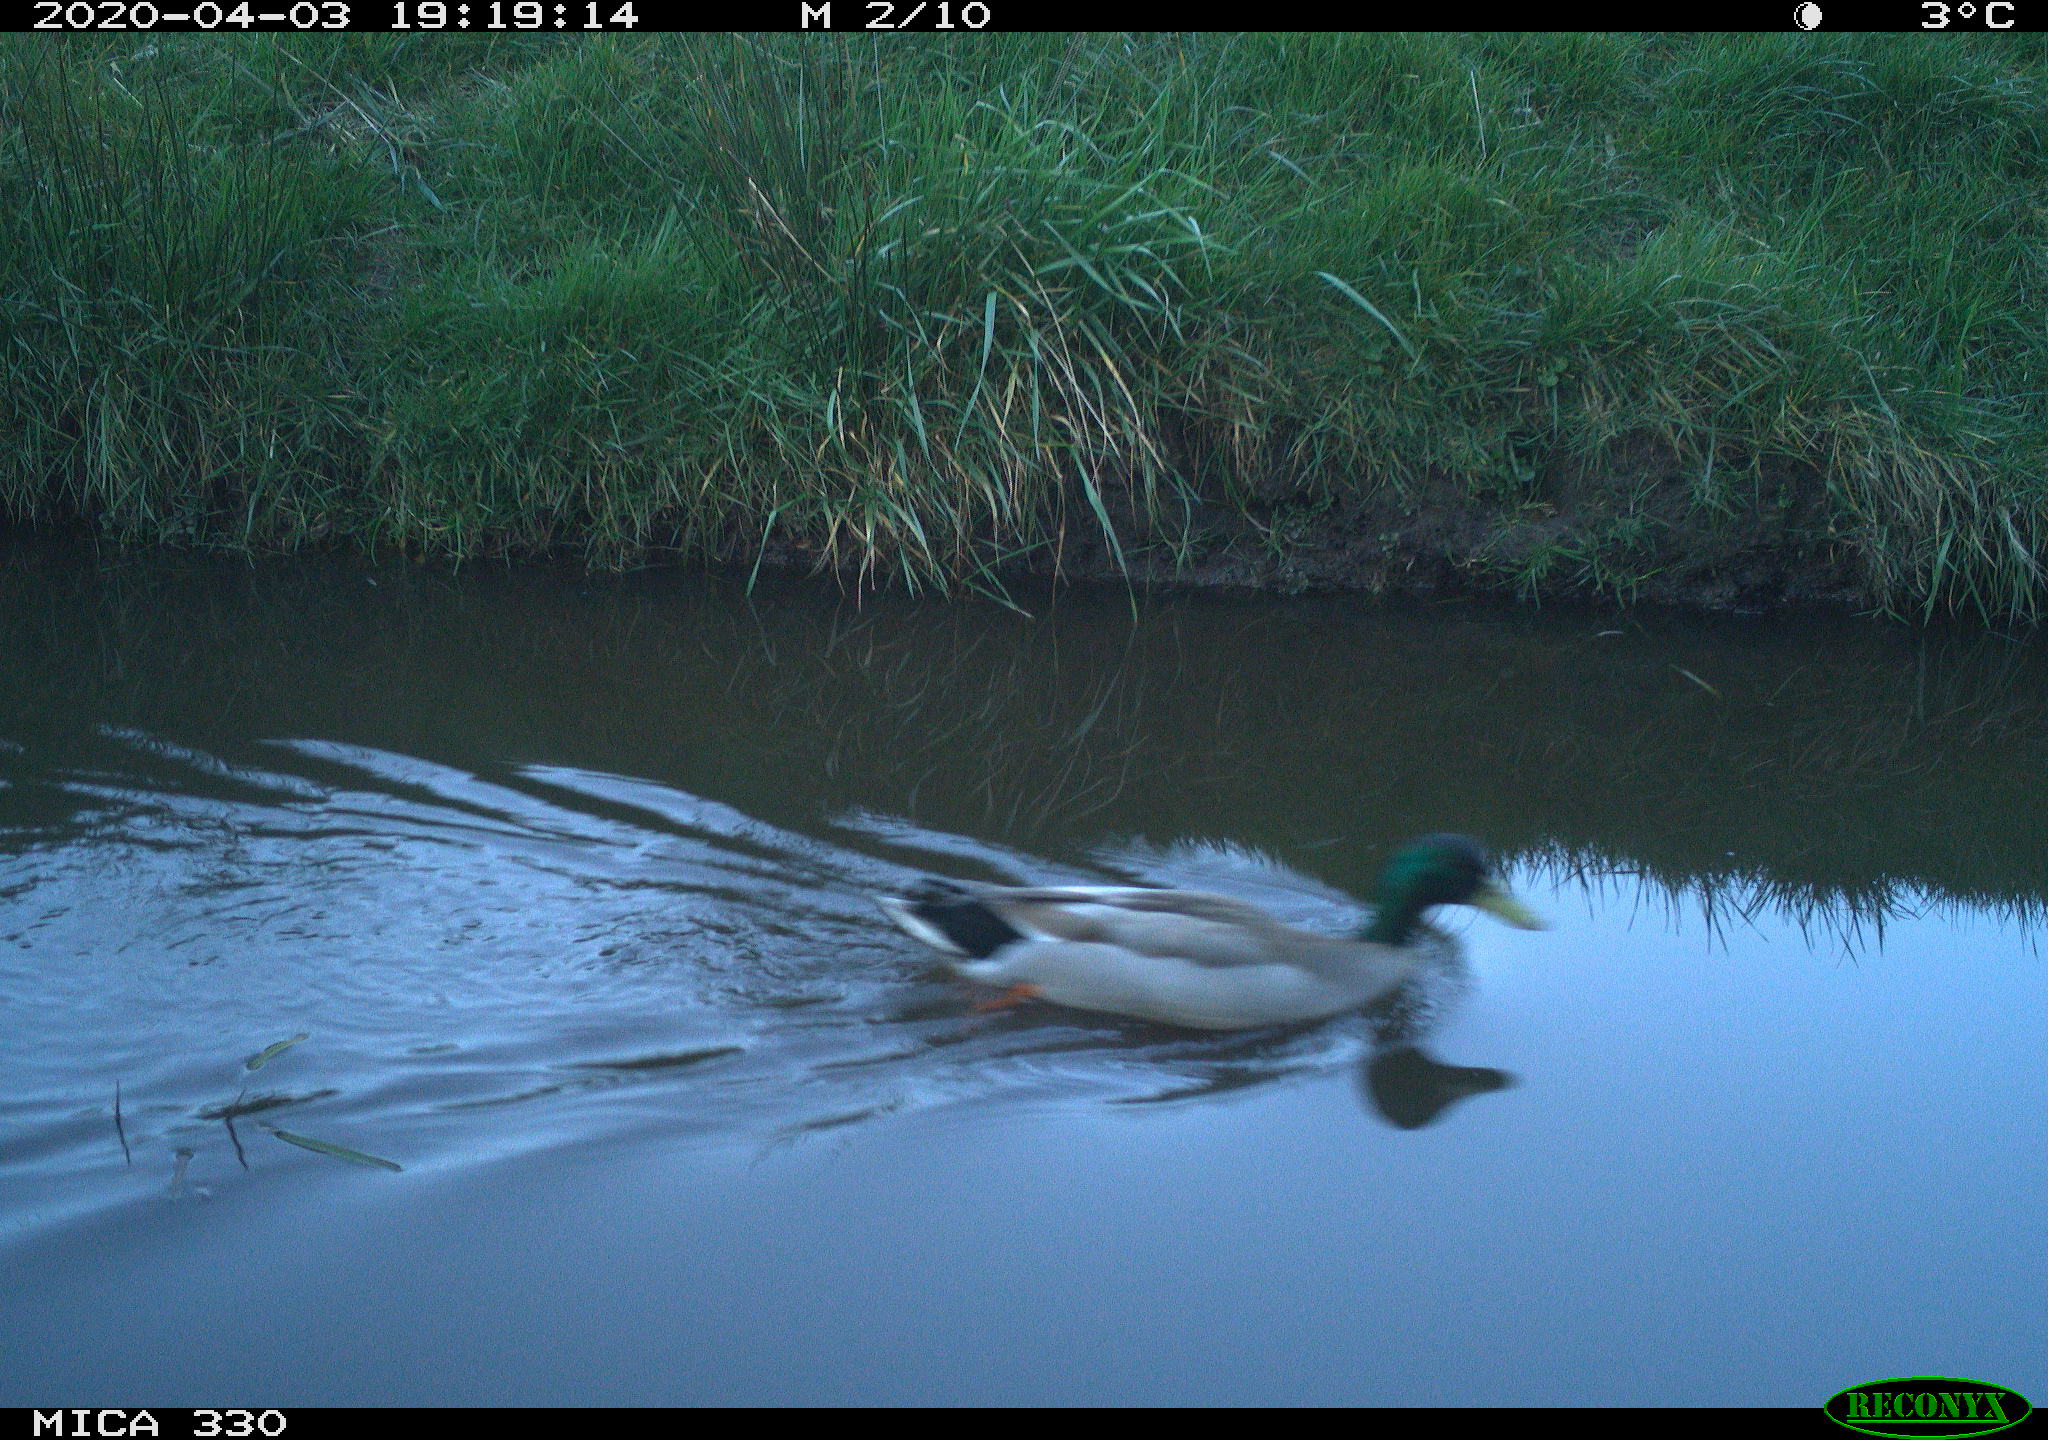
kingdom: Animalia
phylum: Chordata
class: Aves
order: Anseriformes
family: Anatidae
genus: Anas
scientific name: Anas platyrhynchos
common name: Mallard
